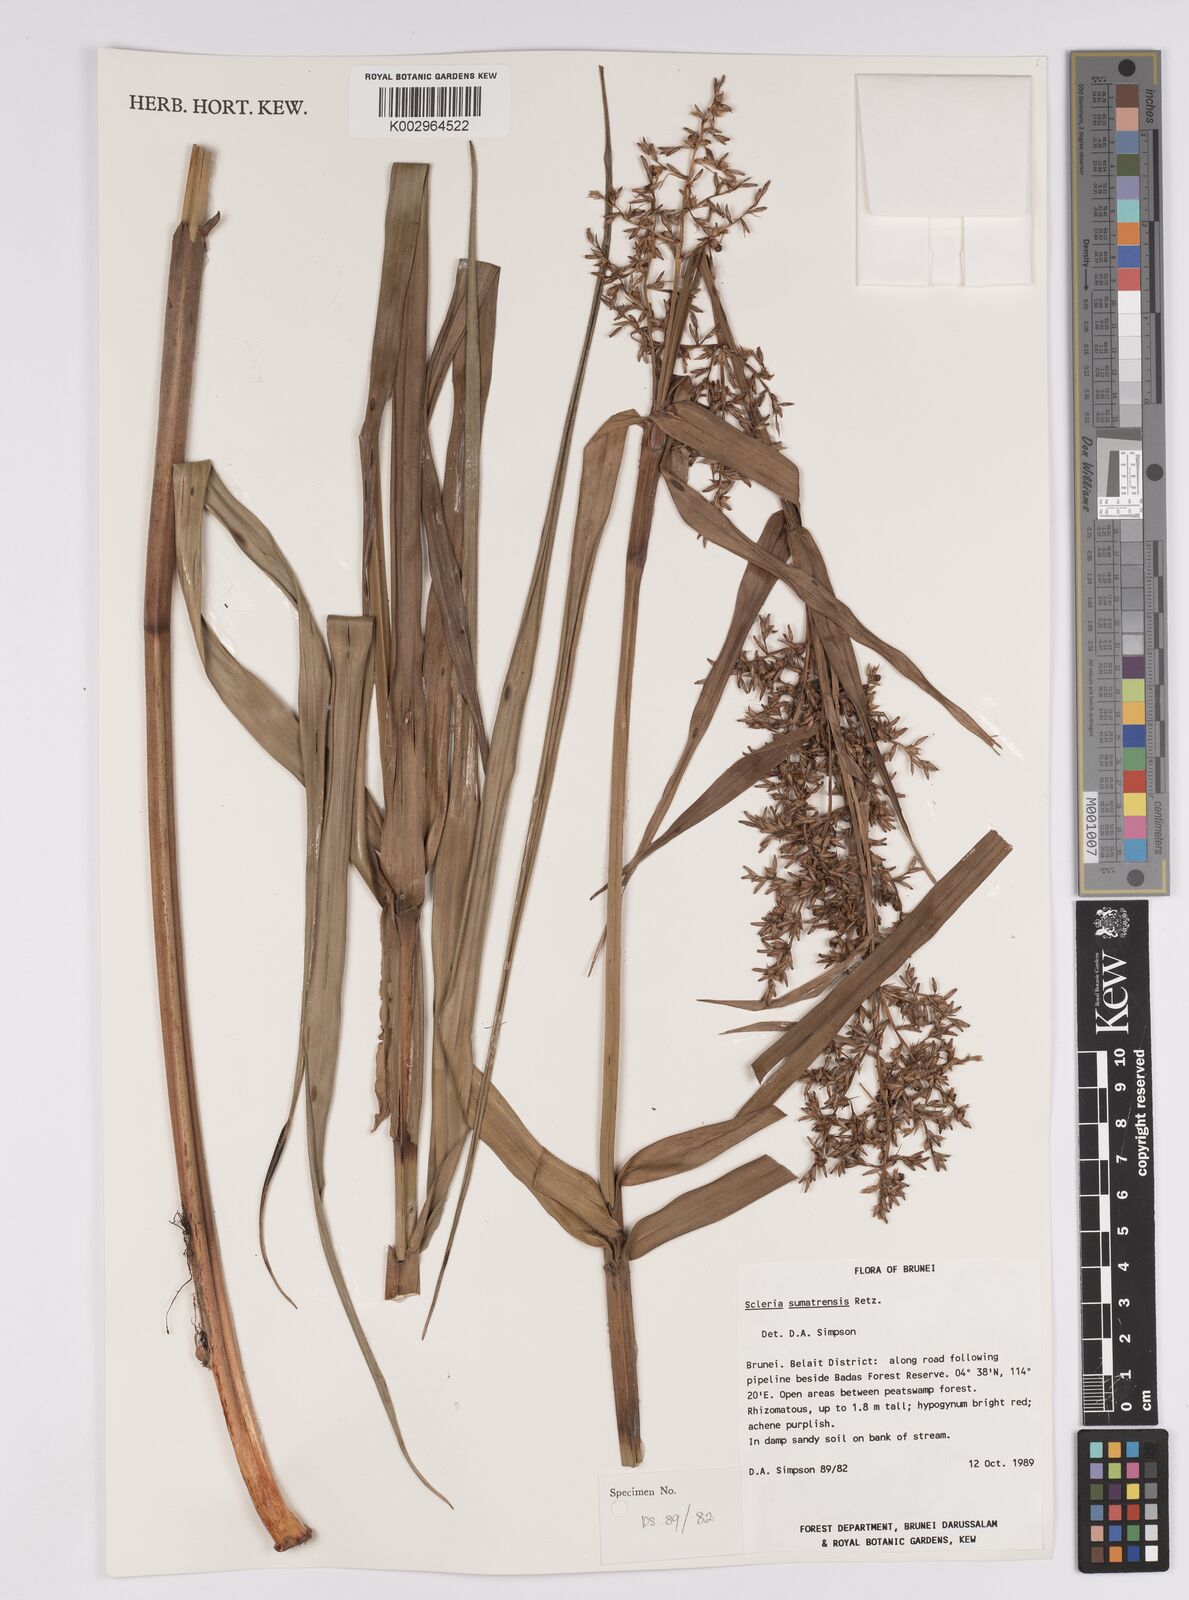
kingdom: Plantae
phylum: Tracheophyta
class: Liliopsida
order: Poales
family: Cyperaceae
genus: Scleria
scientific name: Scleria sumatrensis
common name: Sumatran scleria
